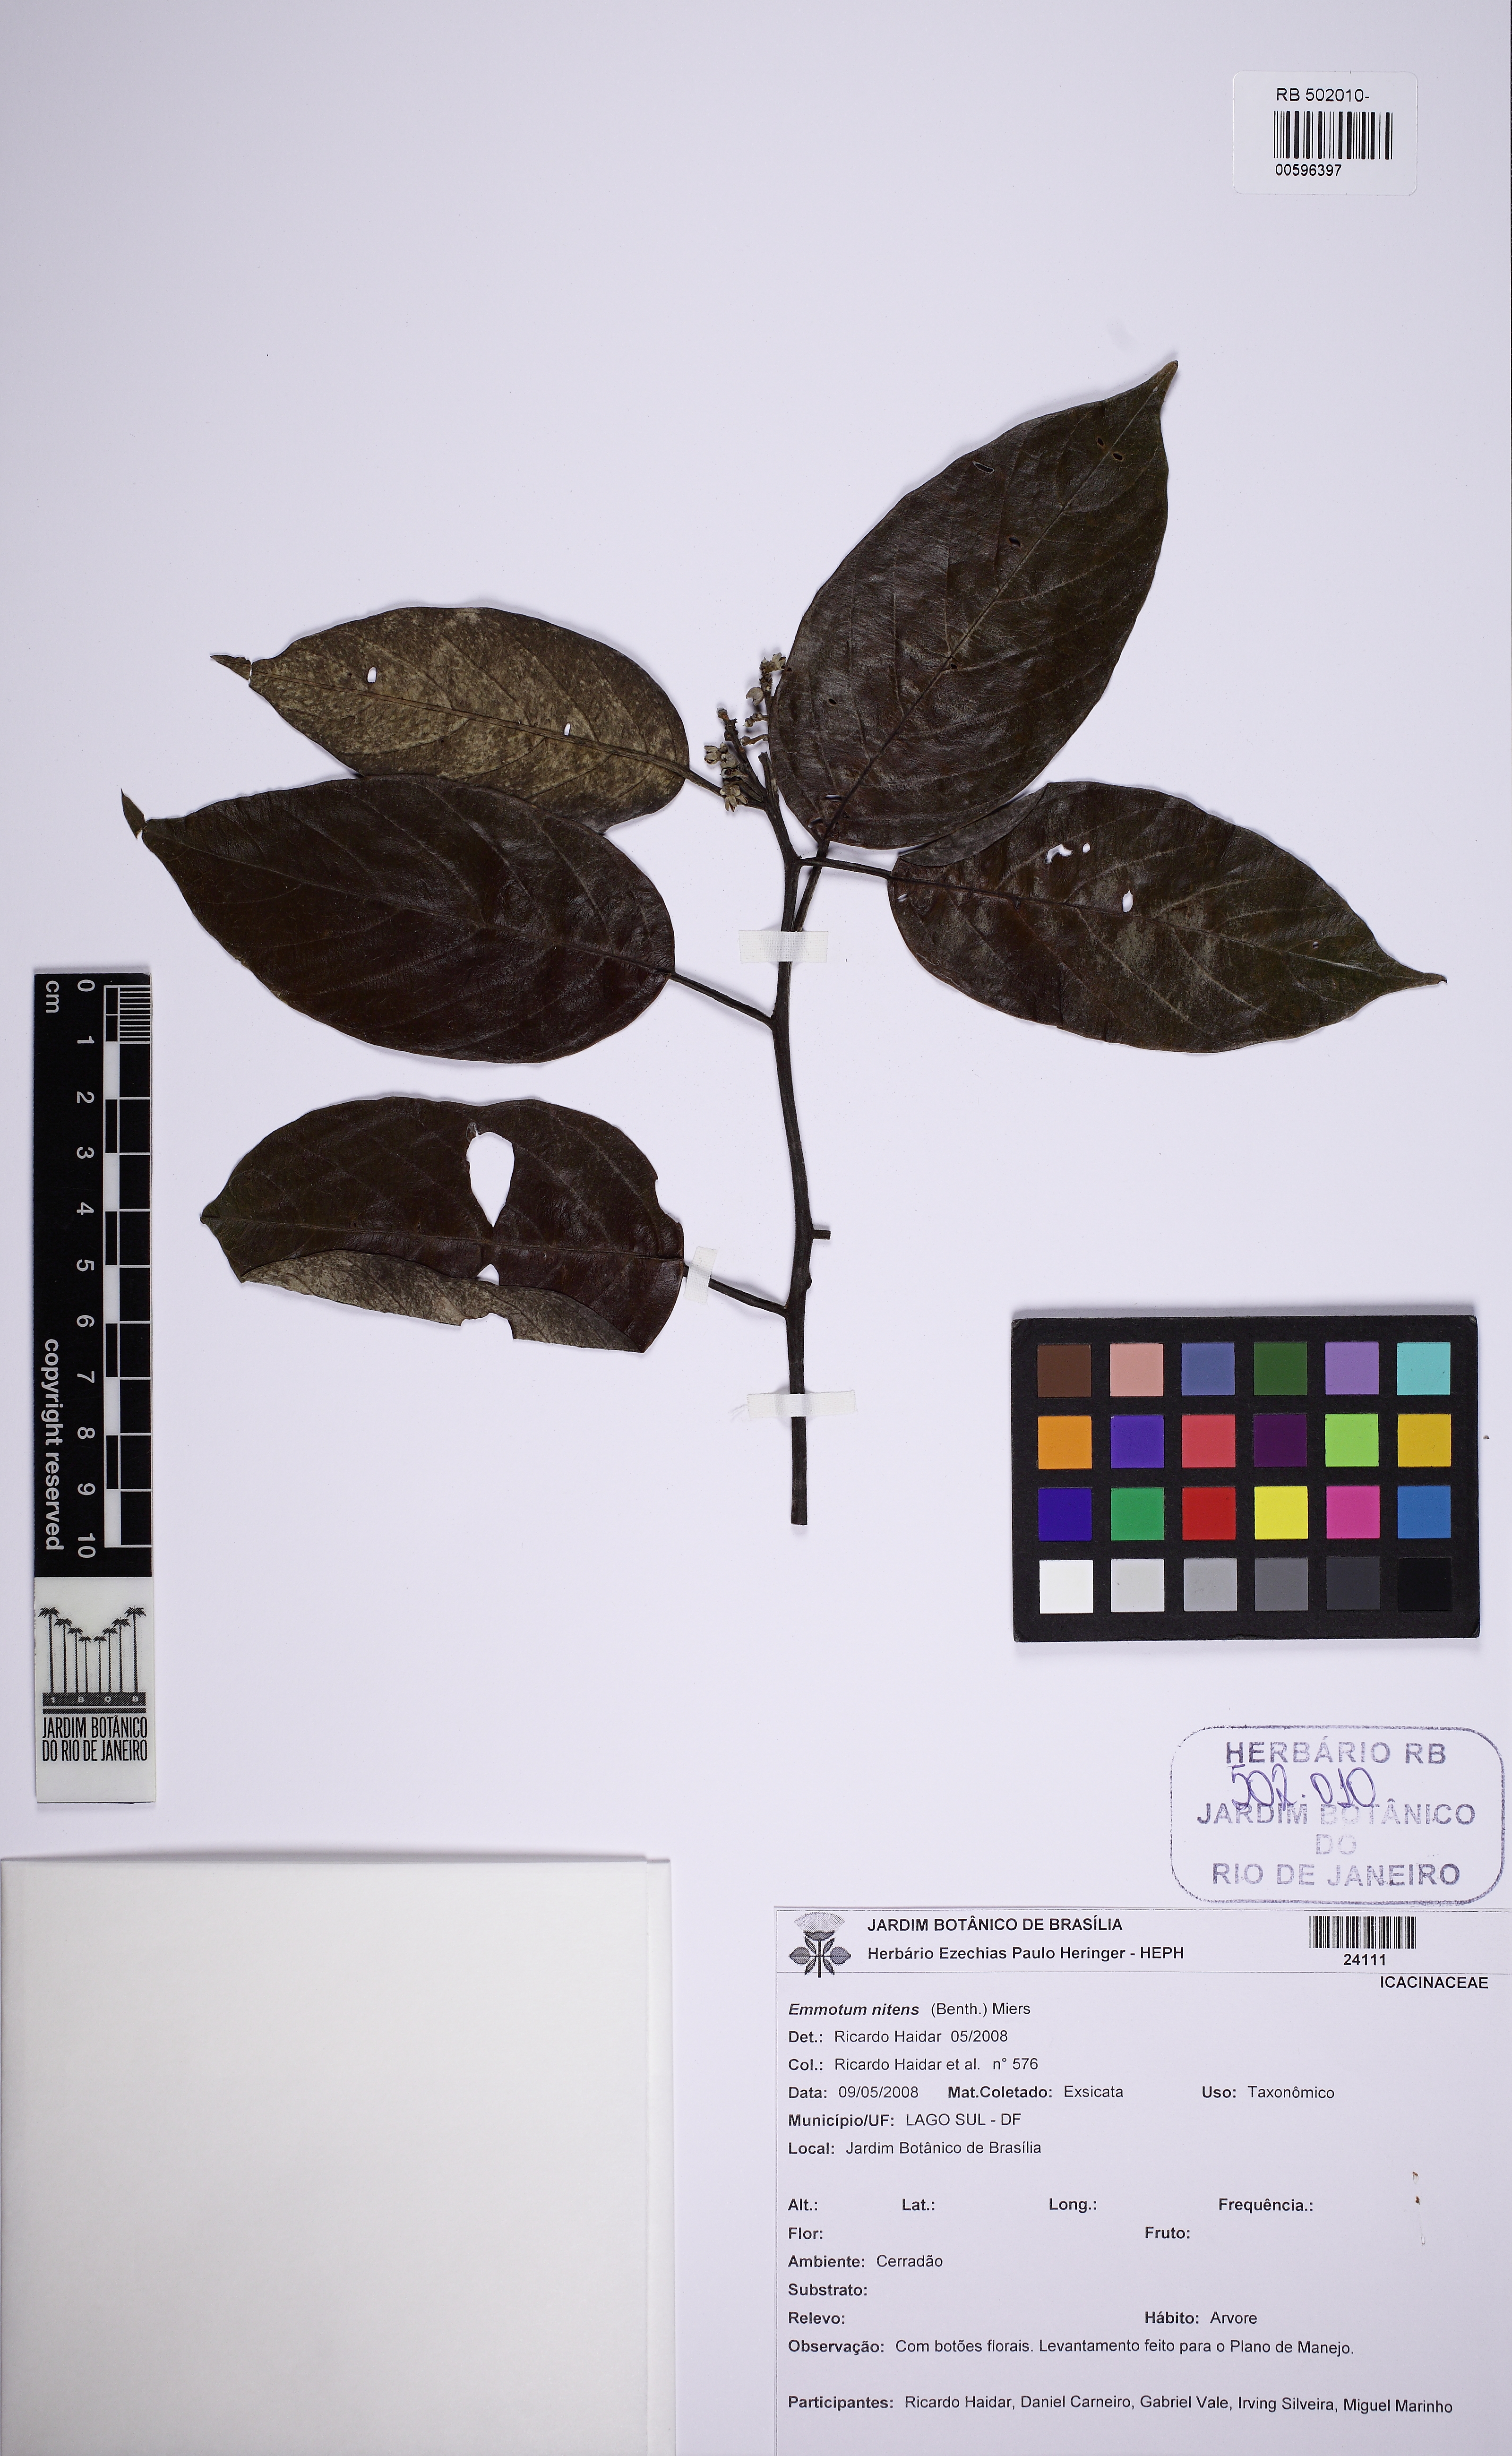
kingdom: Plantae
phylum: Tracheophyta
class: Magnoliopsida
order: Metteniusales
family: Metteniusaceae
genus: Emmotum
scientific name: Emmotum nitens
